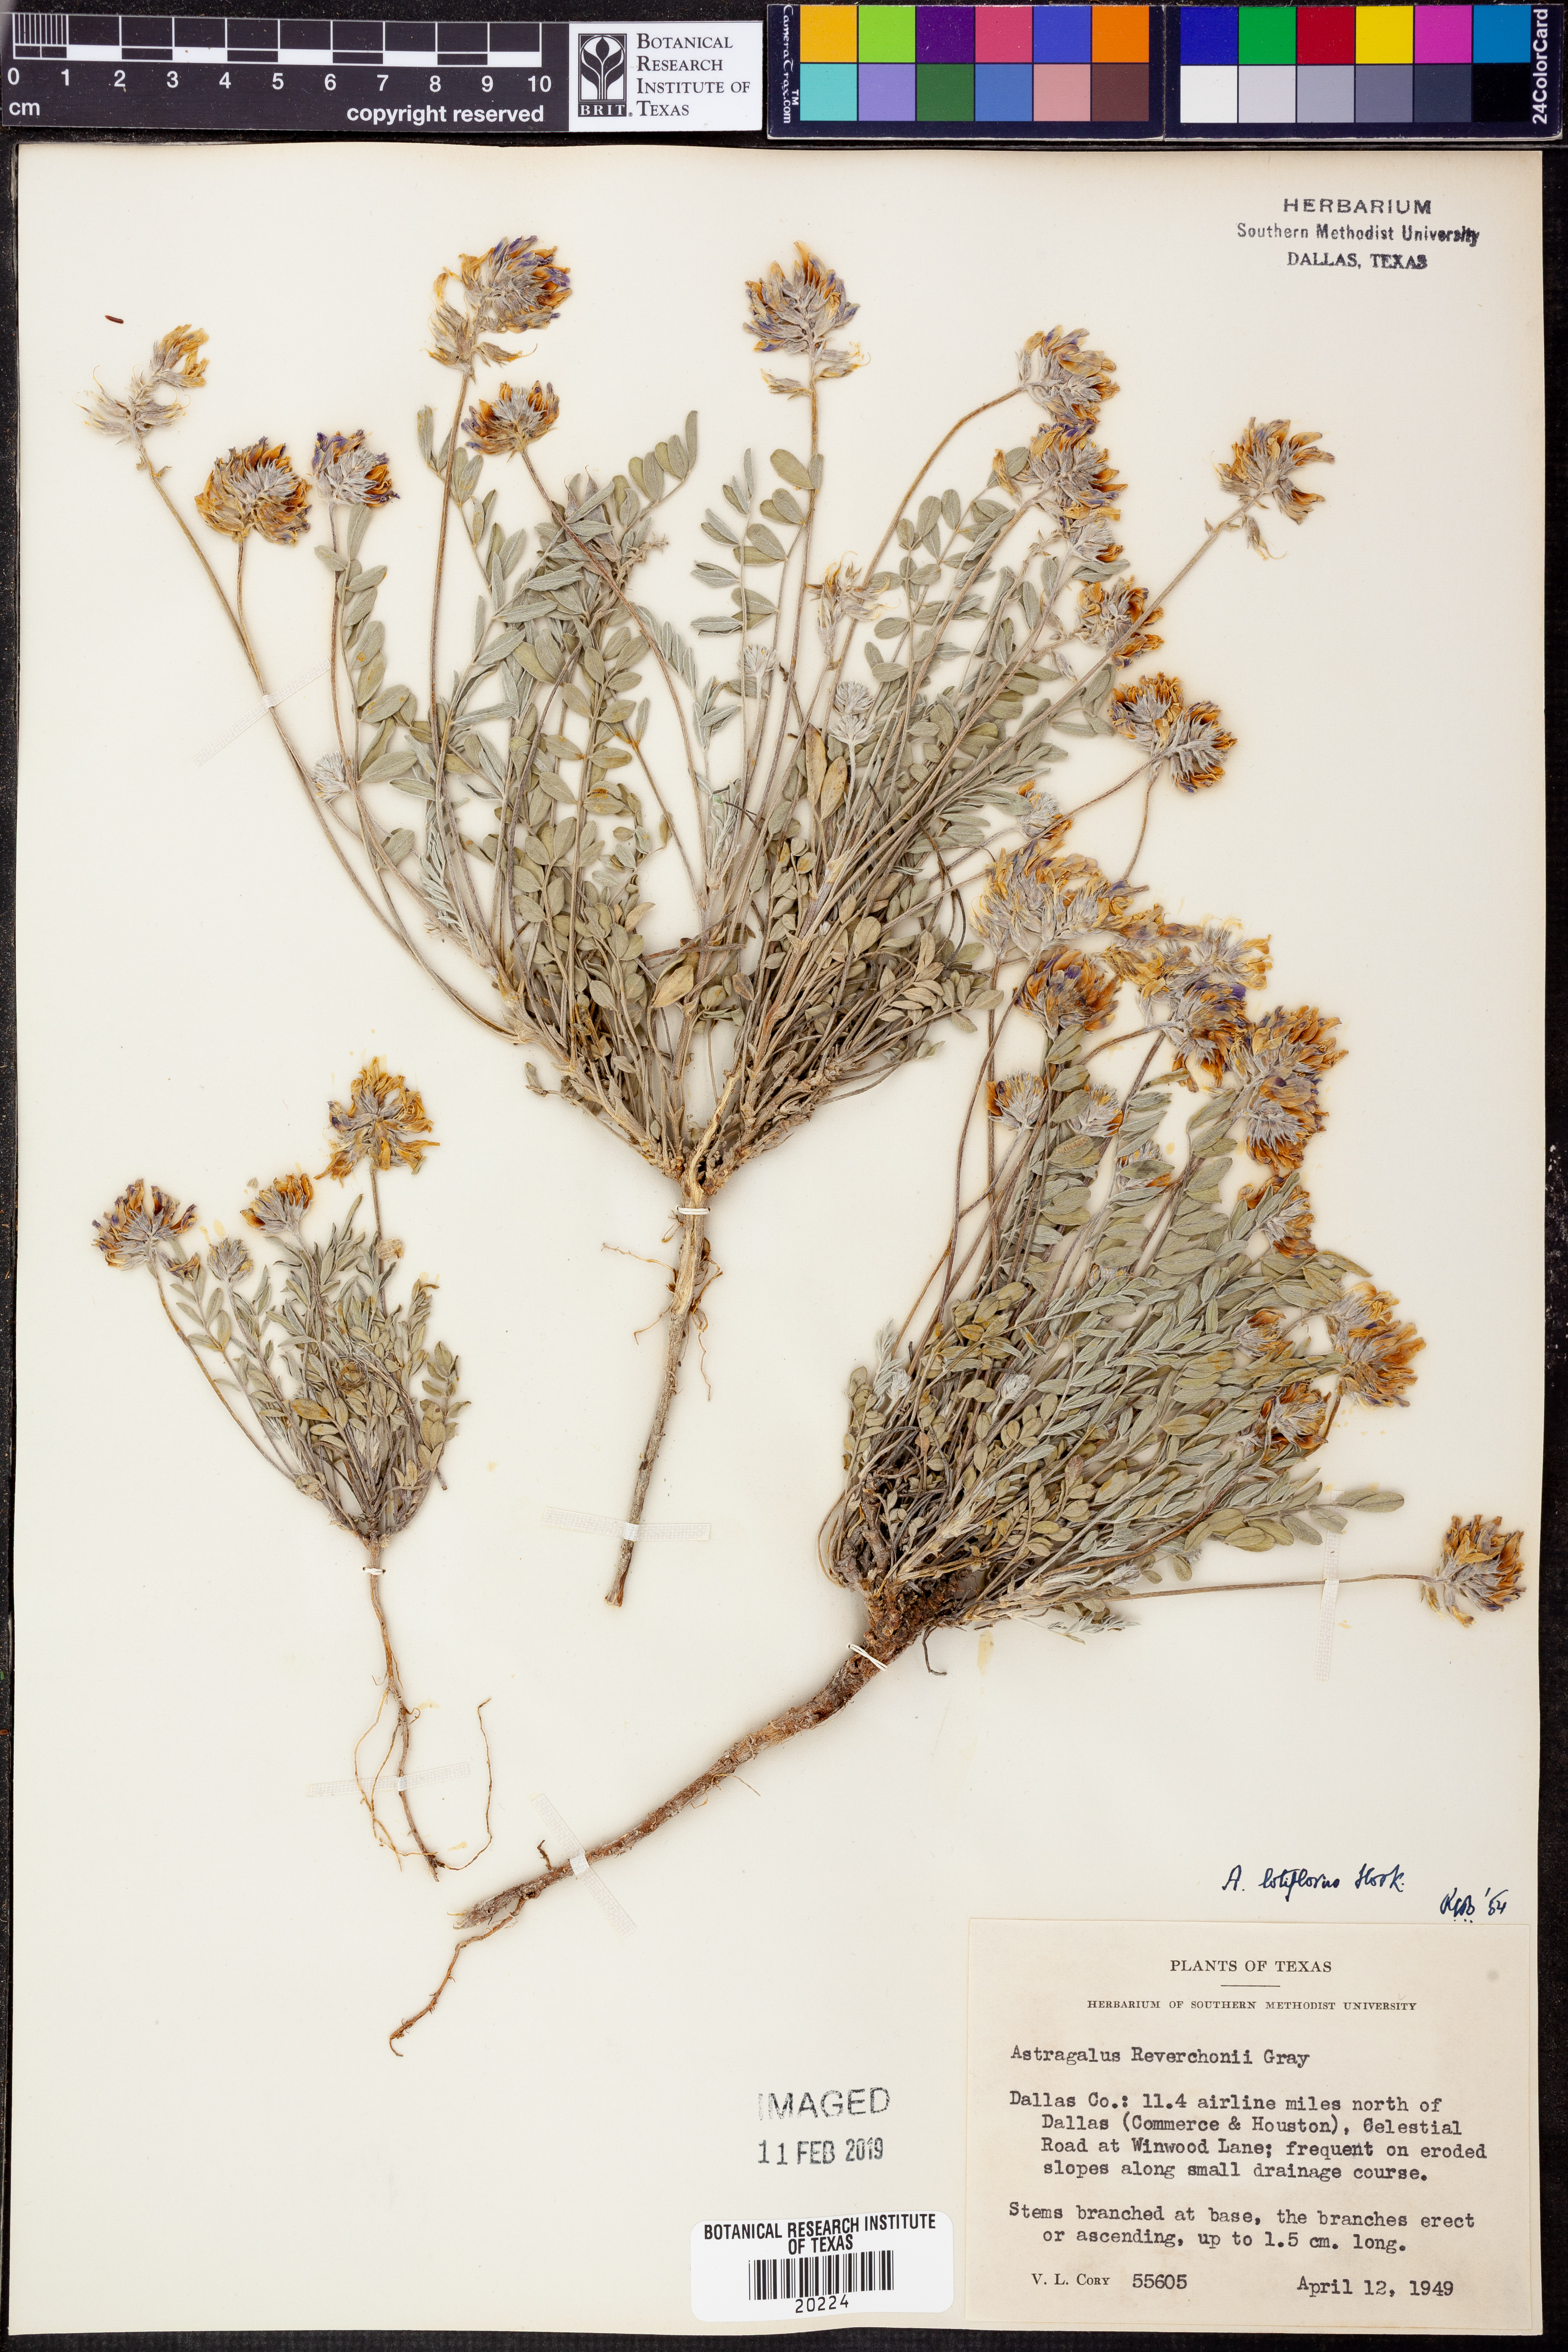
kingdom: Plantae
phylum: Tracheophyta
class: Magnoliopsida
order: Fabales
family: Fabaceae
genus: Astragalus
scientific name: Astragalus lotiflorus
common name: Lotus milk-vetch
